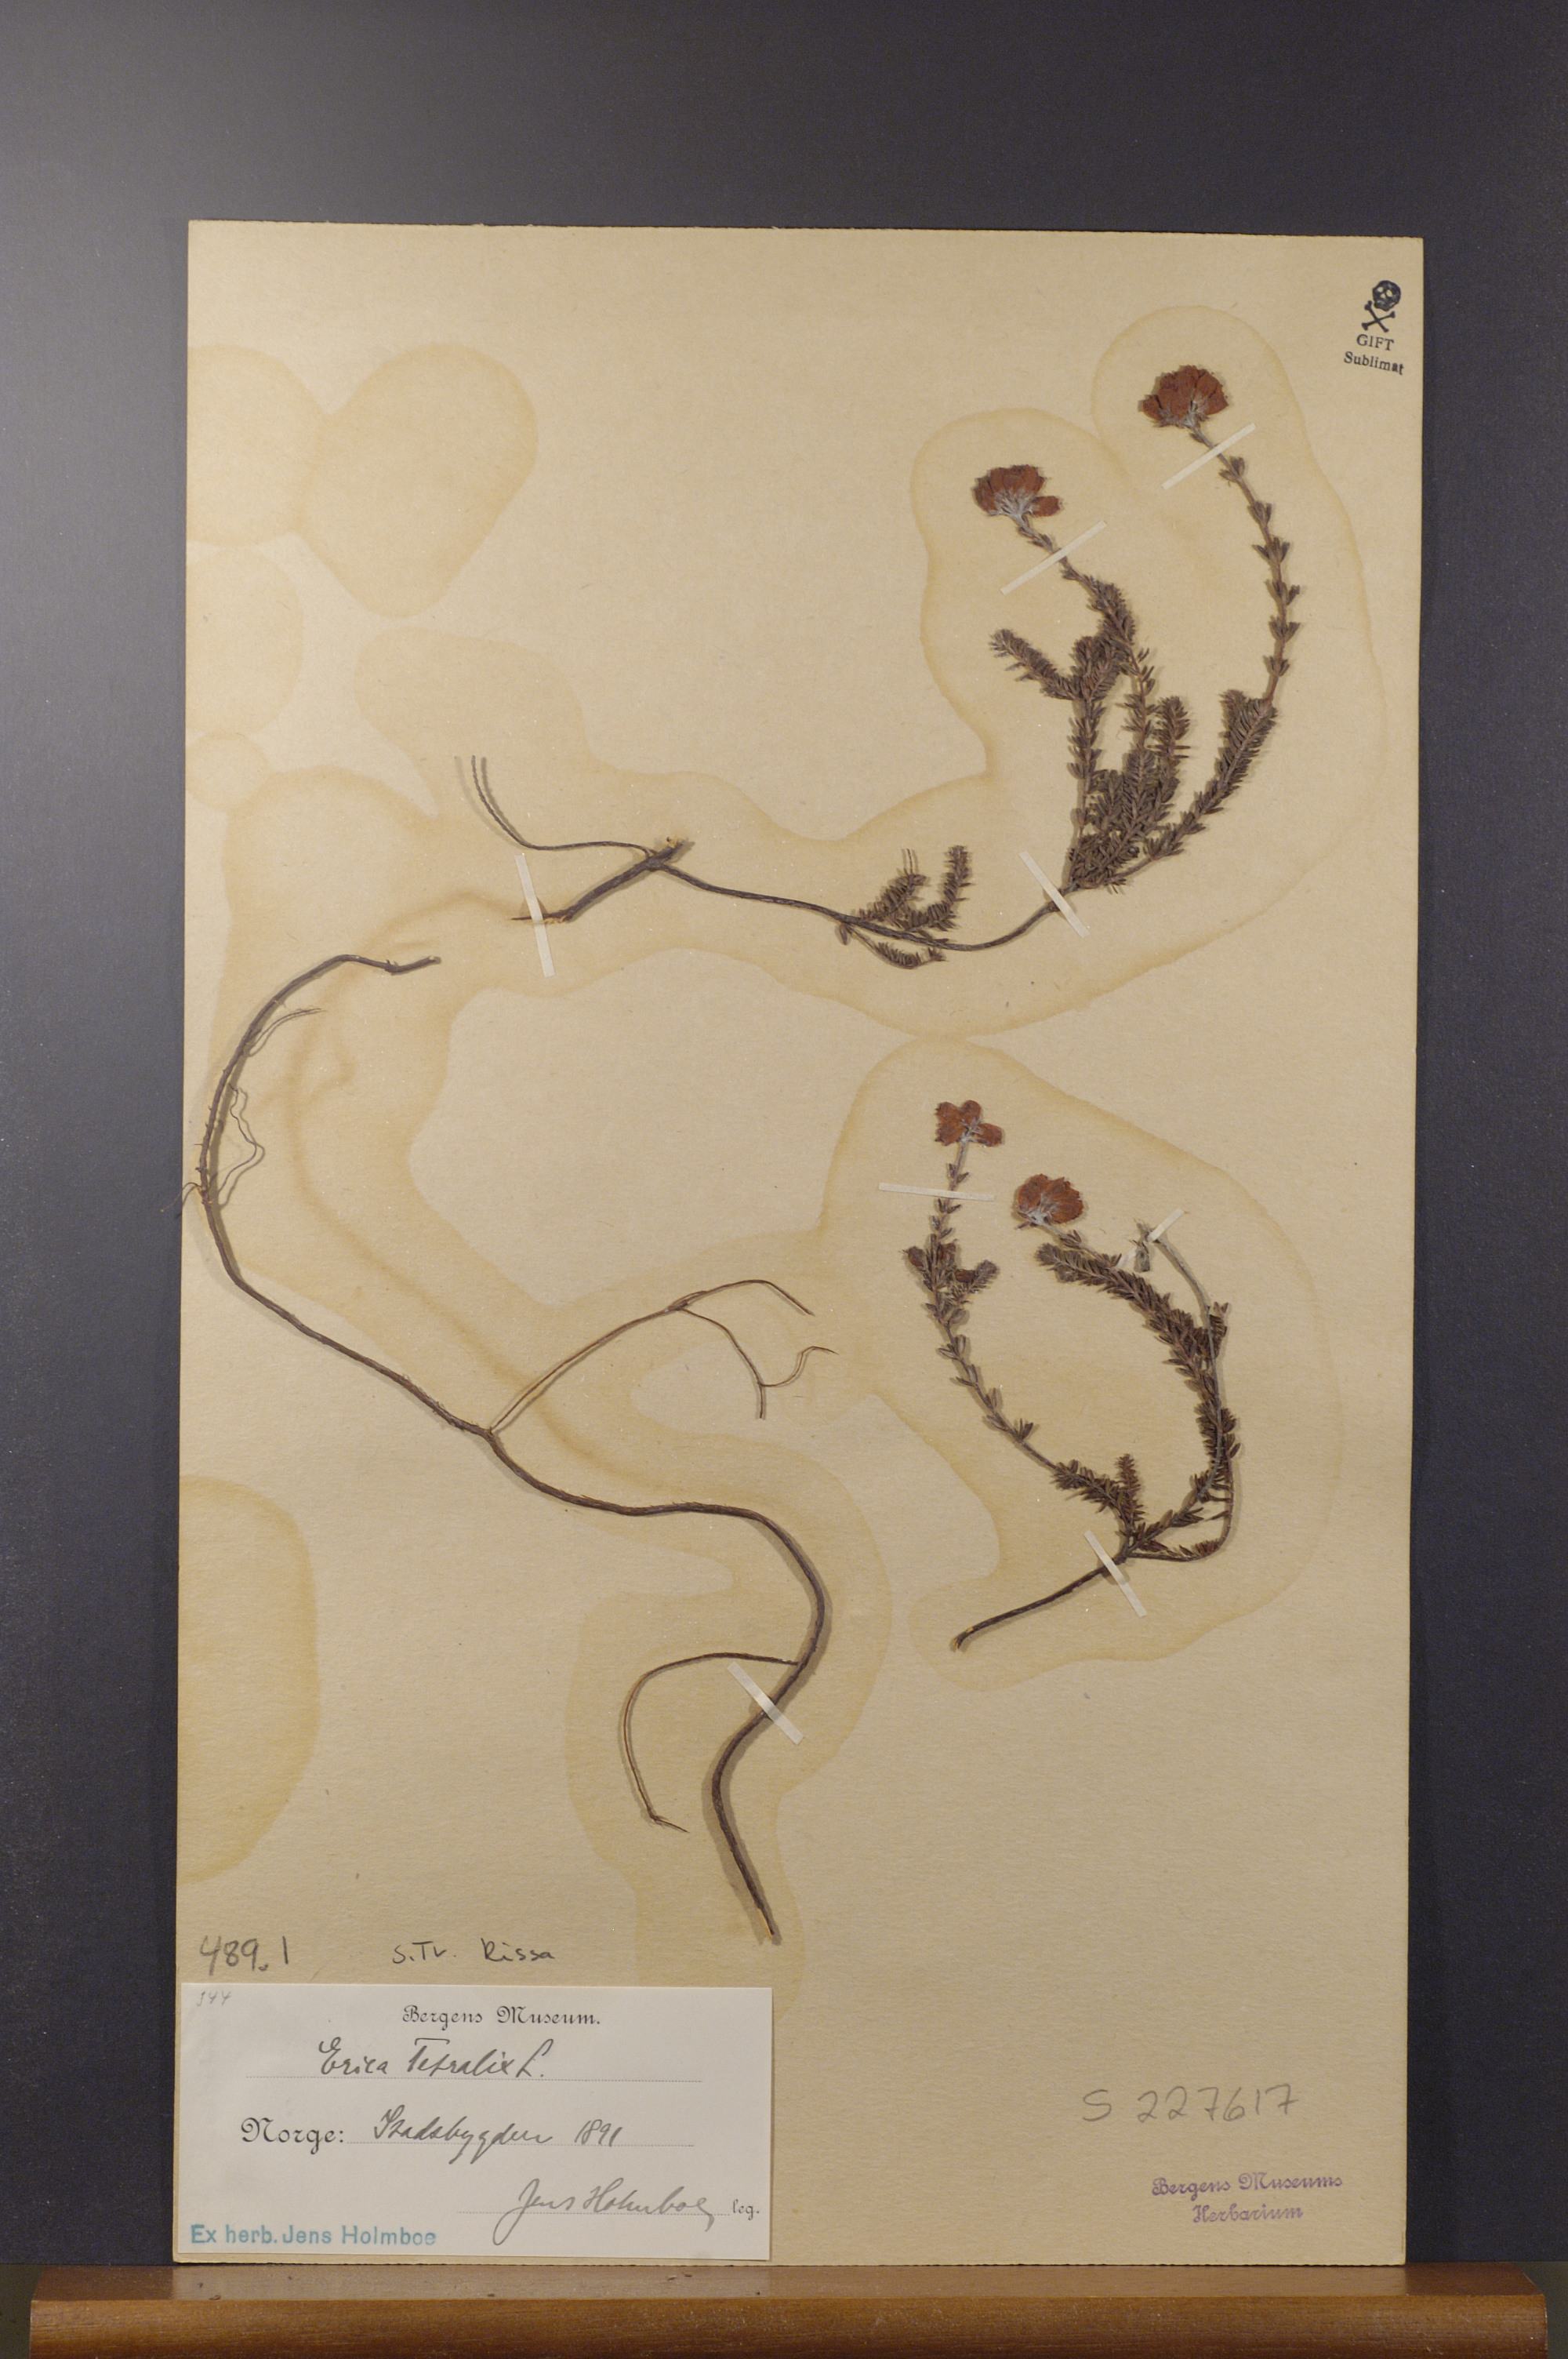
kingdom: Plantae
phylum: Tracheophyta
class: Magnoliopsida
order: Ericales
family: Ericaceae
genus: Erica
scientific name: Erica tetralix
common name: Cross-leaved heath
